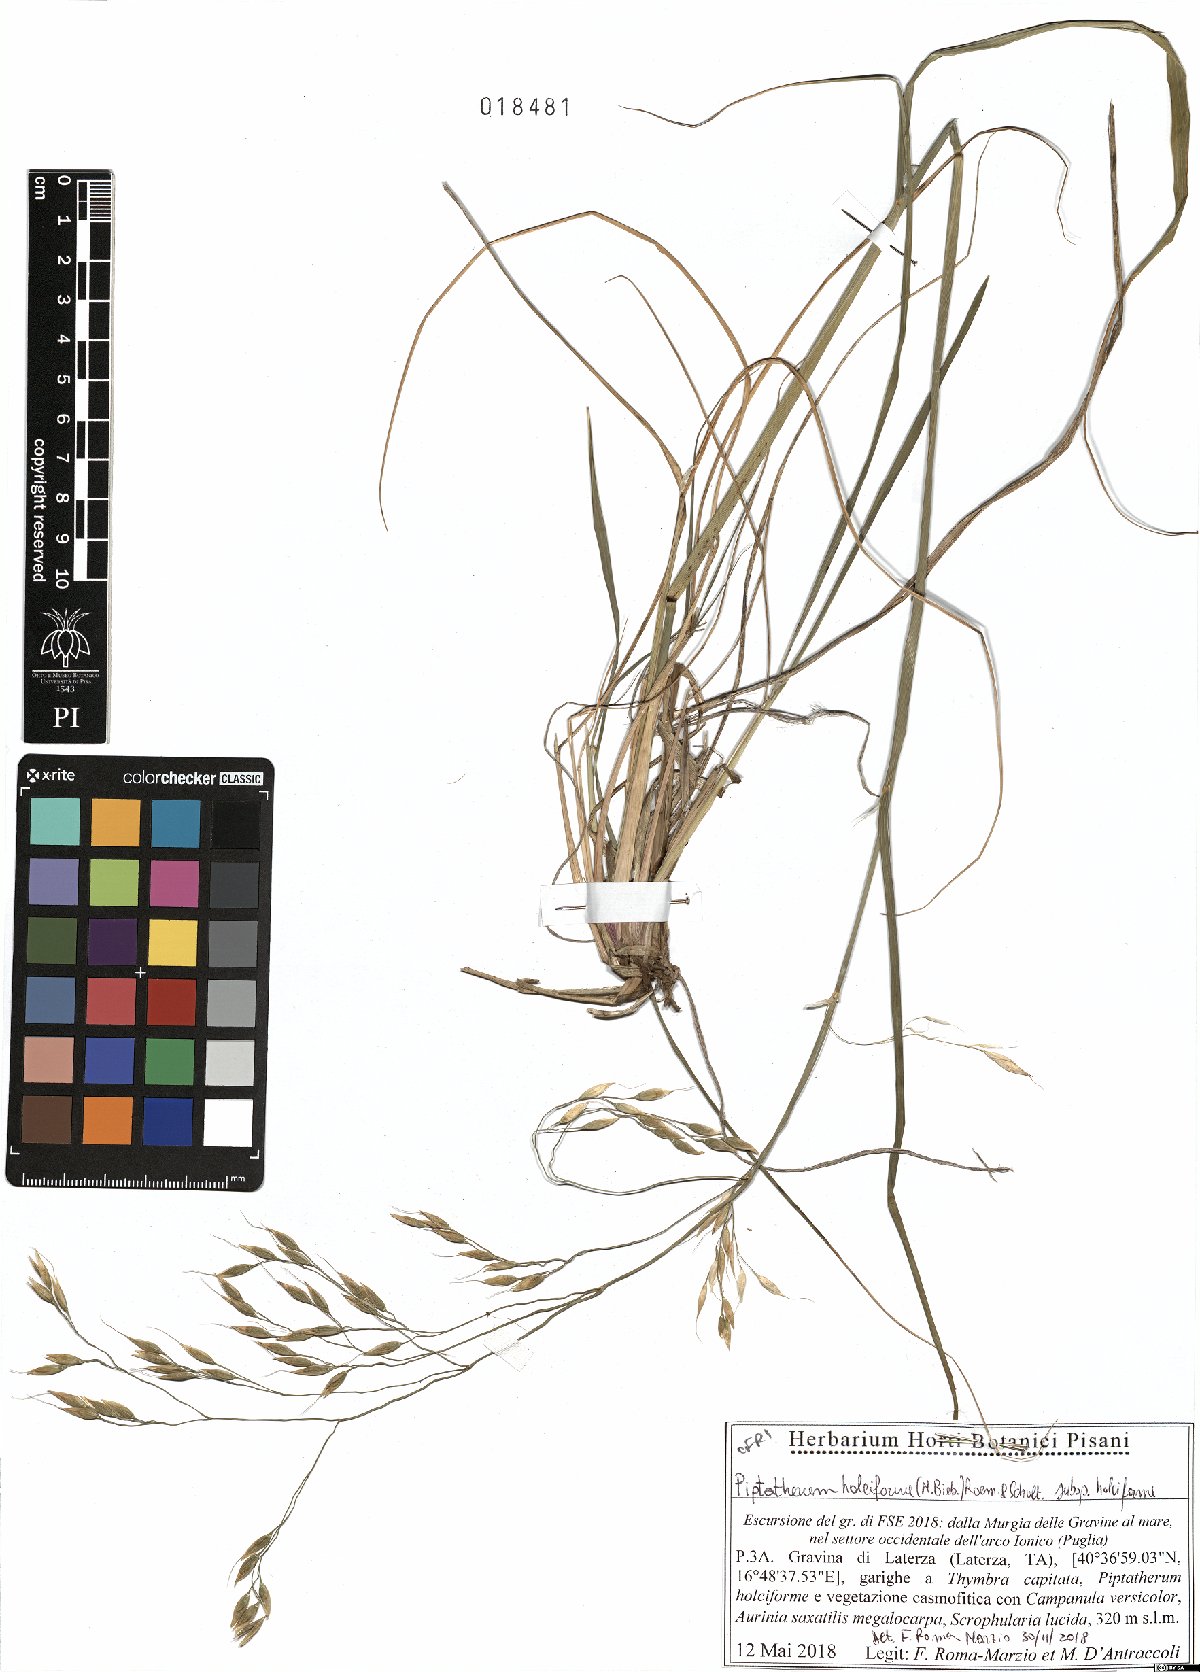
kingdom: Plantae
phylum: Tracheophyta
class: Liliopsida
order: Poales
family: Poaceae
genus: Piptatherum
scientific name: Piptatherum holciforme
